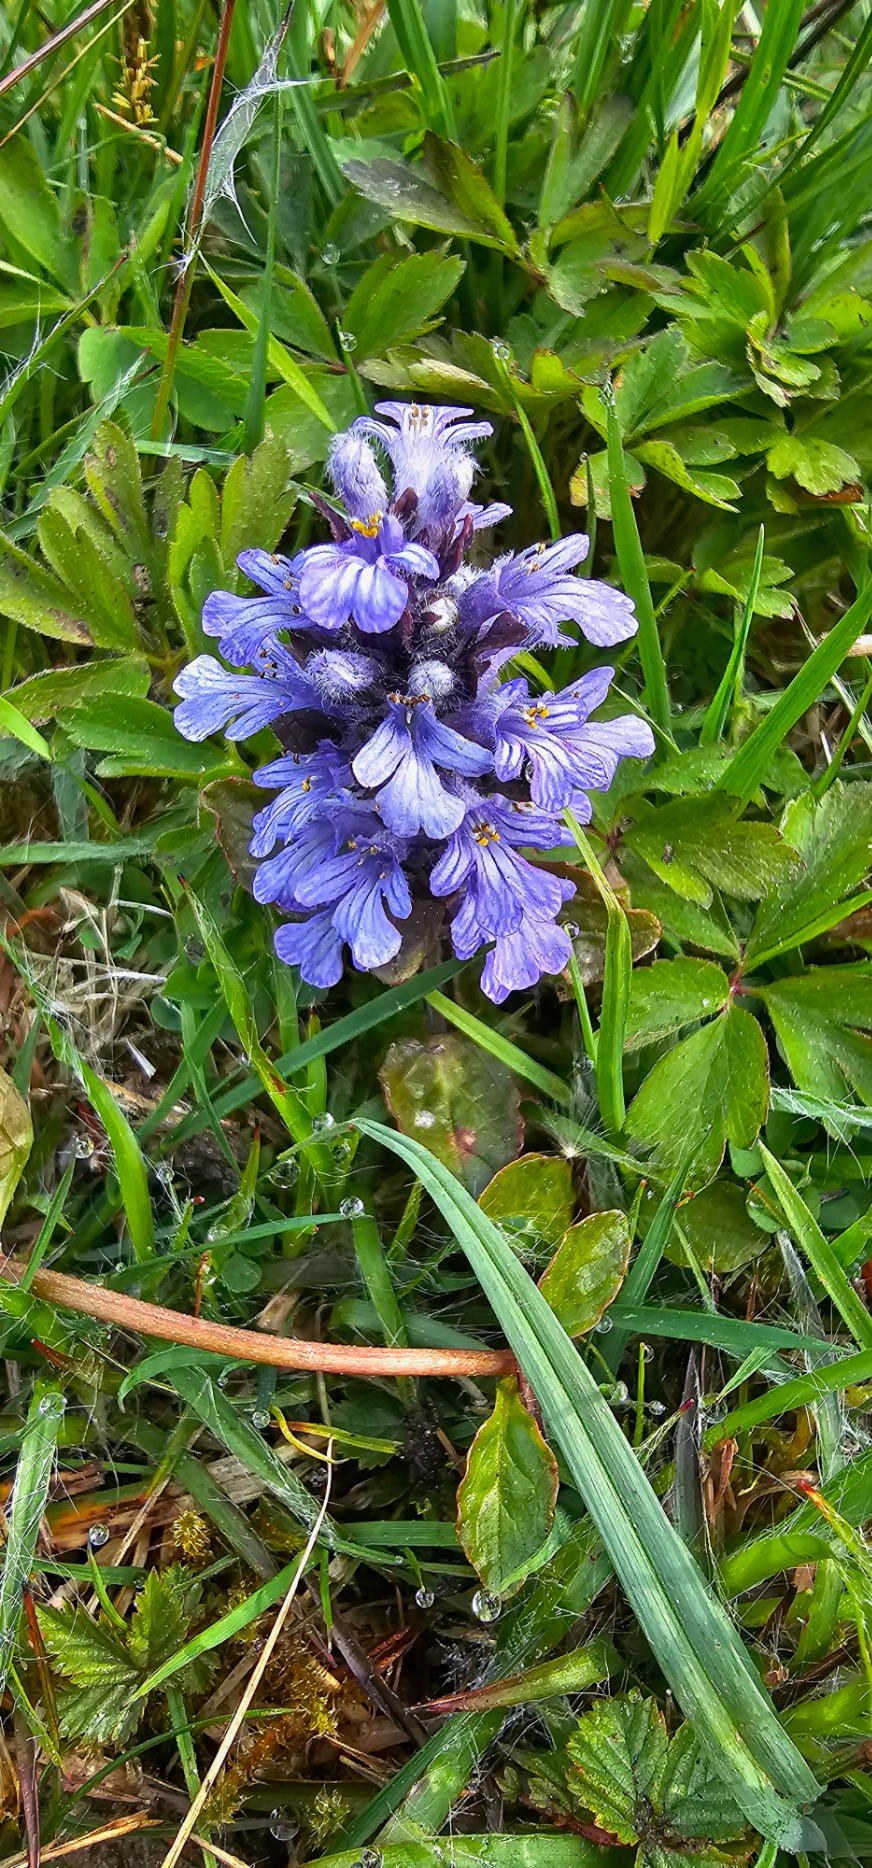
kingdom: Plantae
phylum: Tracheophyta
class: Magnoliopsida
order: Lamiales
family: Lamiaceae
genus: Ajuga
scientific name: Ajuga reptans
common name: Krybende læbeløs
